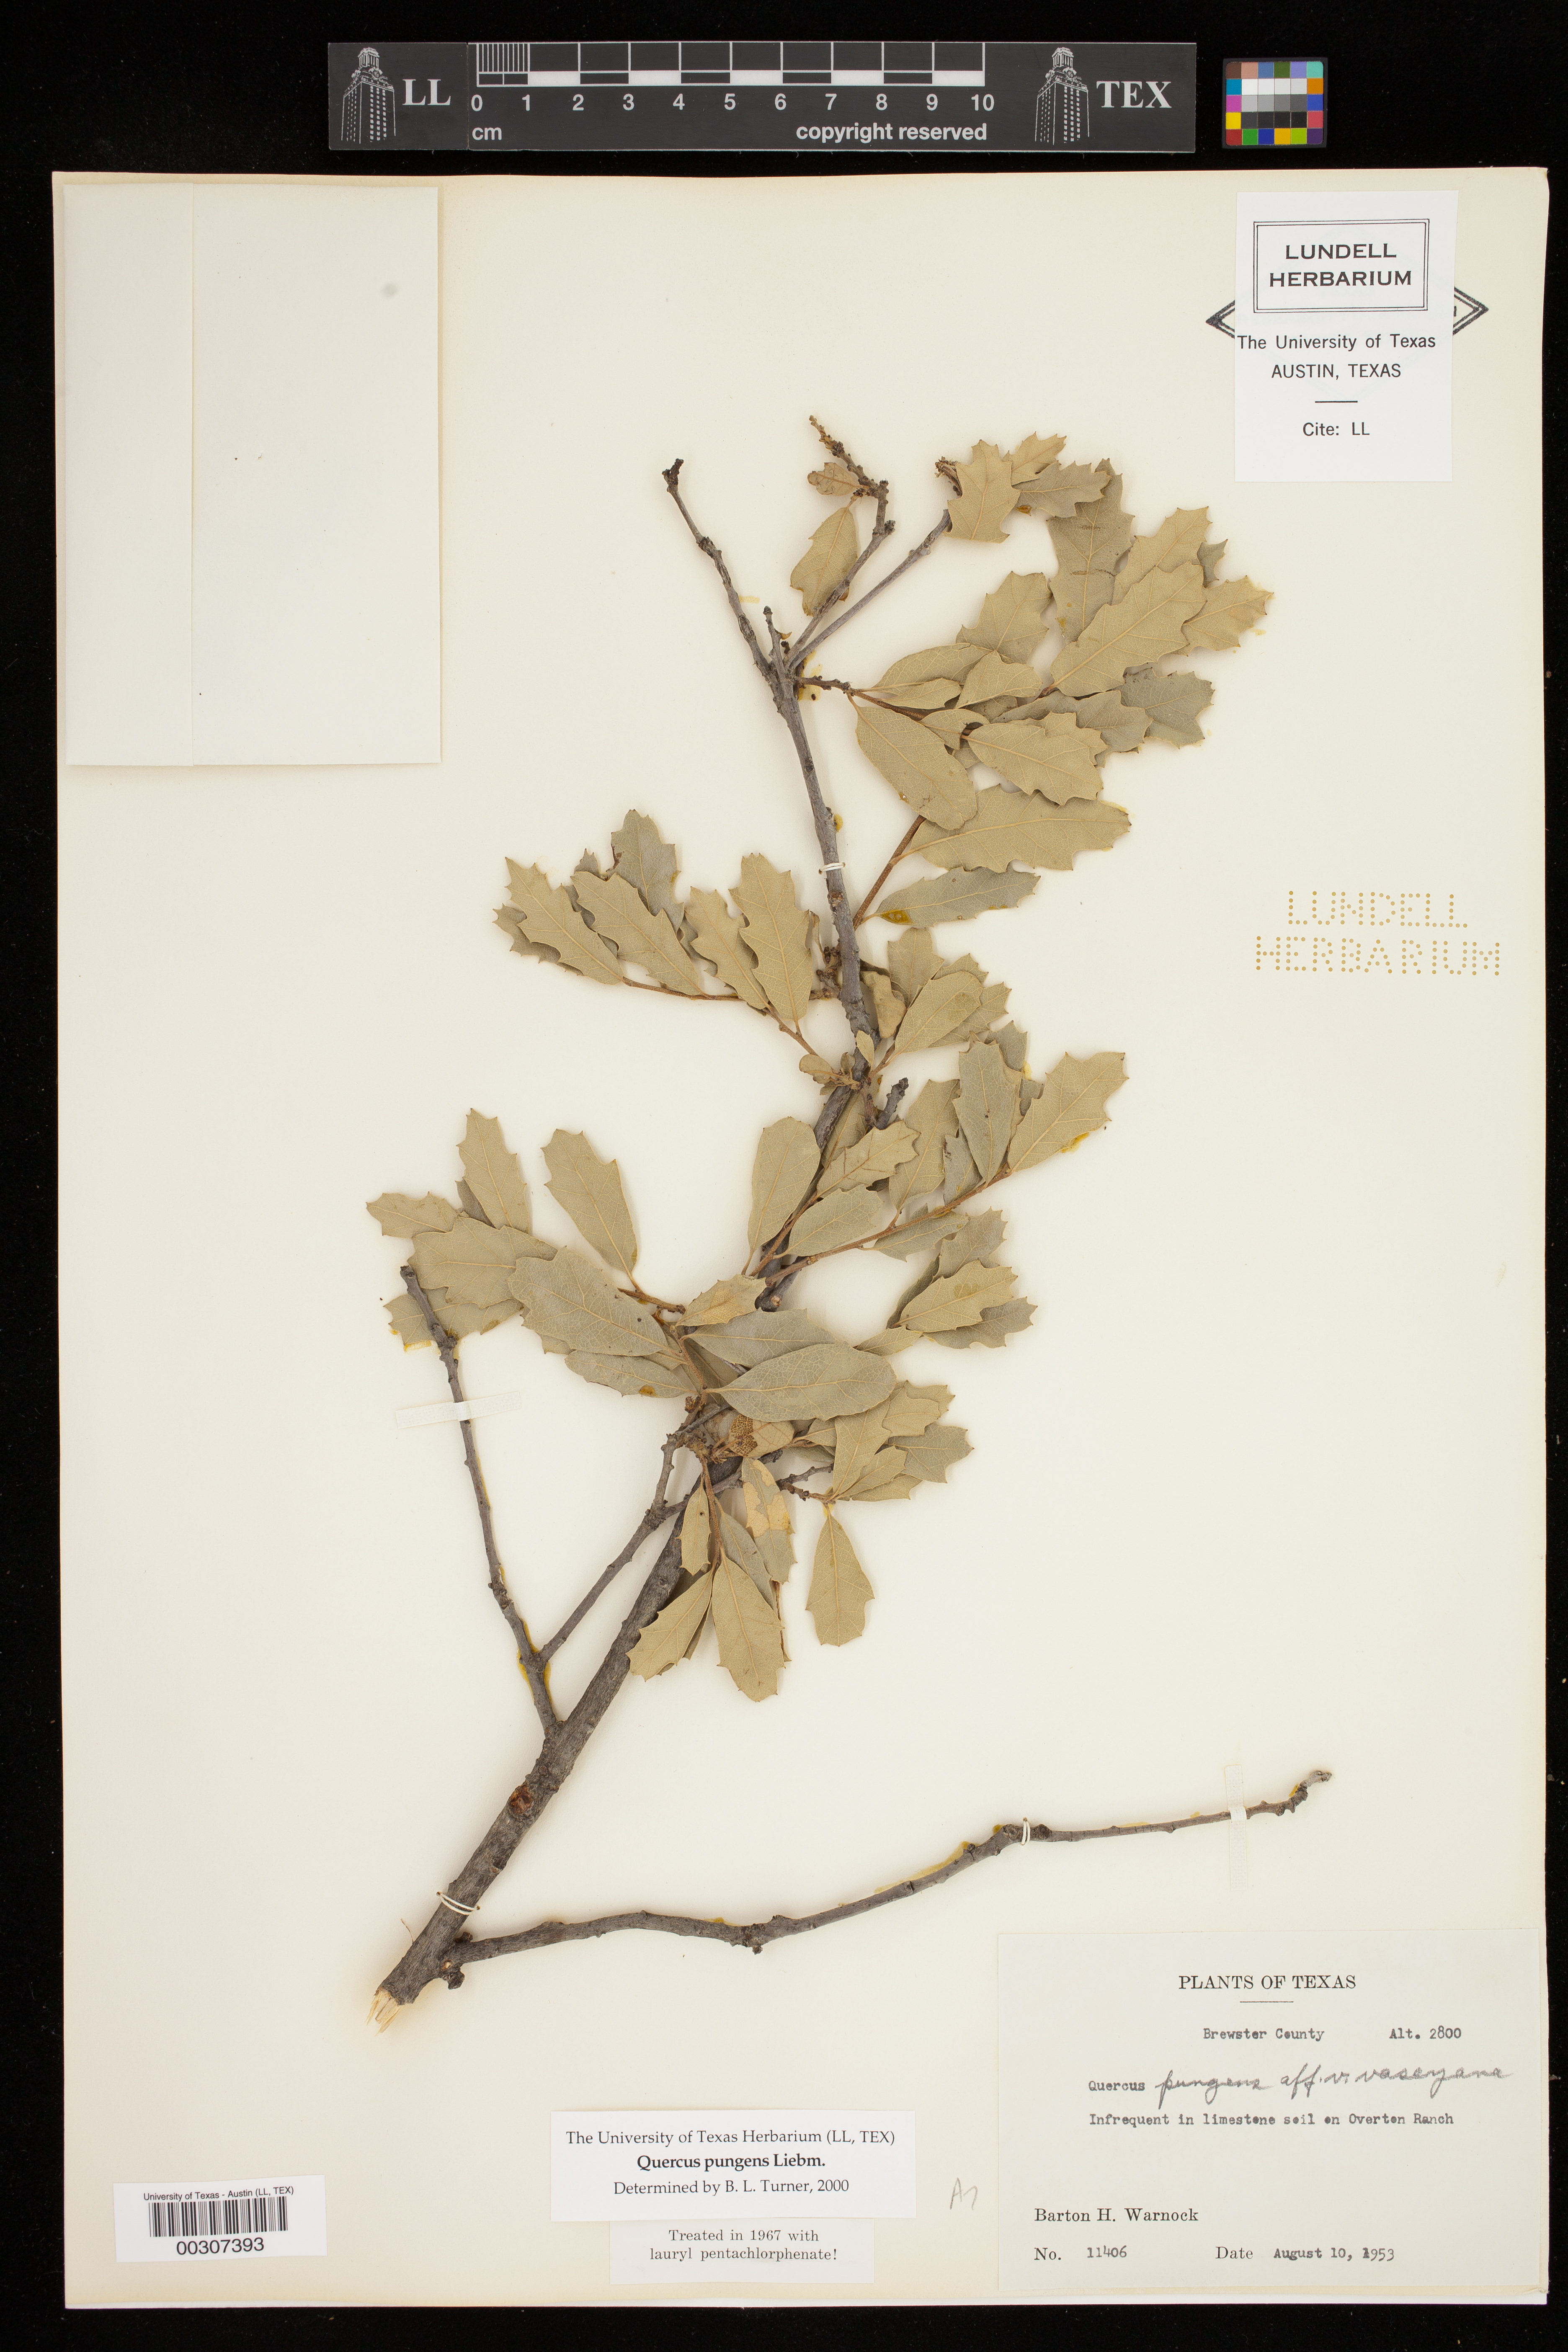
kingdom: Plantae
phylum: Tracheophyta
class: Magnoliopsida
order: Fagales
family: Fagaceae
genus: Quercus
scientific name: Quercus pungens
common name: Pungent oak
